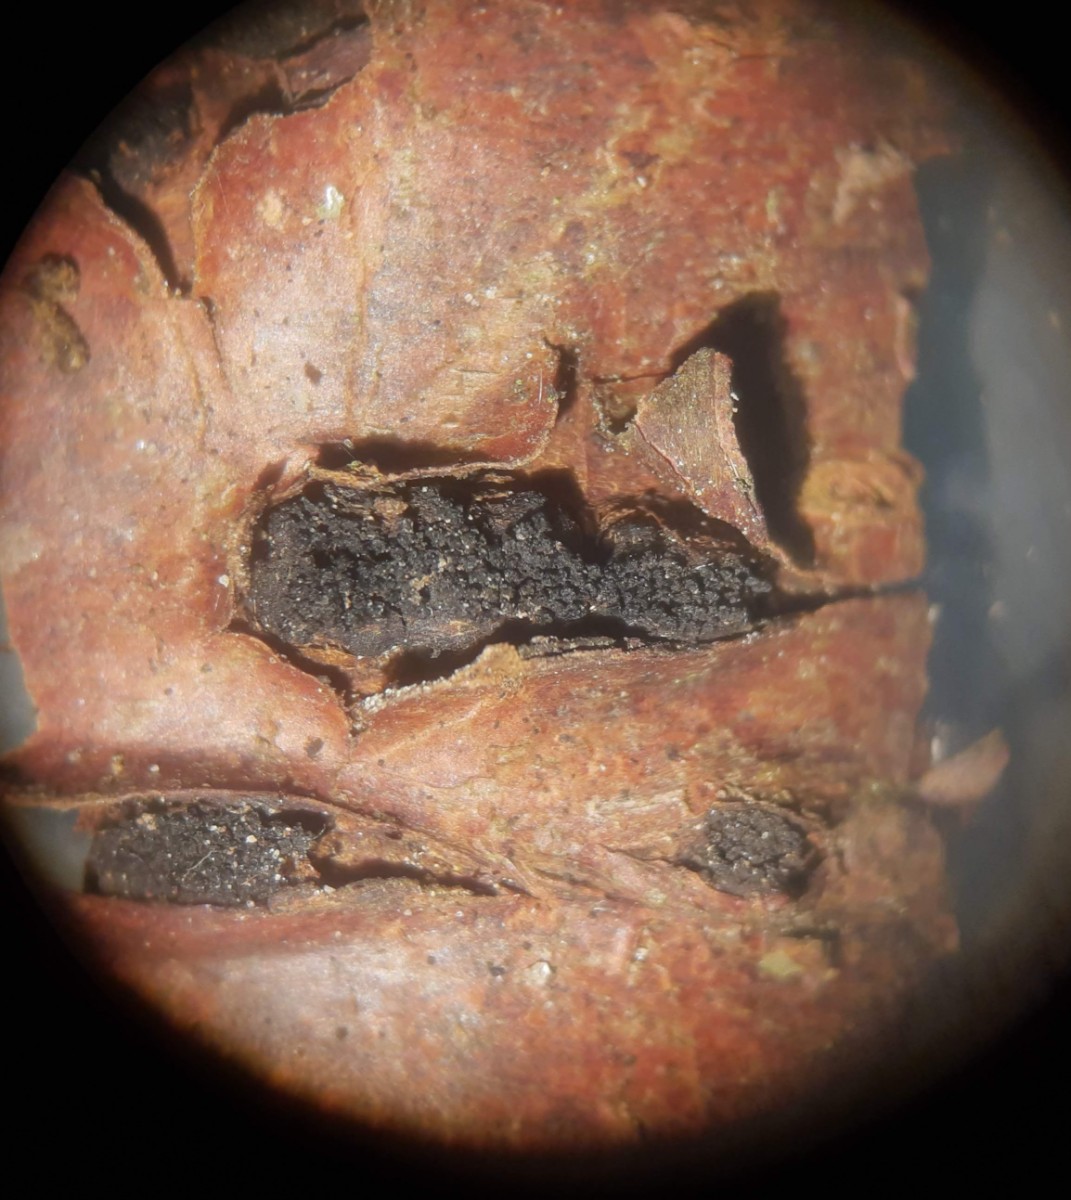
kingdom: Fungi
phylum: Ascomycota
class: Sordariomycetes
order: Xylariales
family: Diatrypaceae
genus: Eutypella
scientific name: Eutypella prunastri
